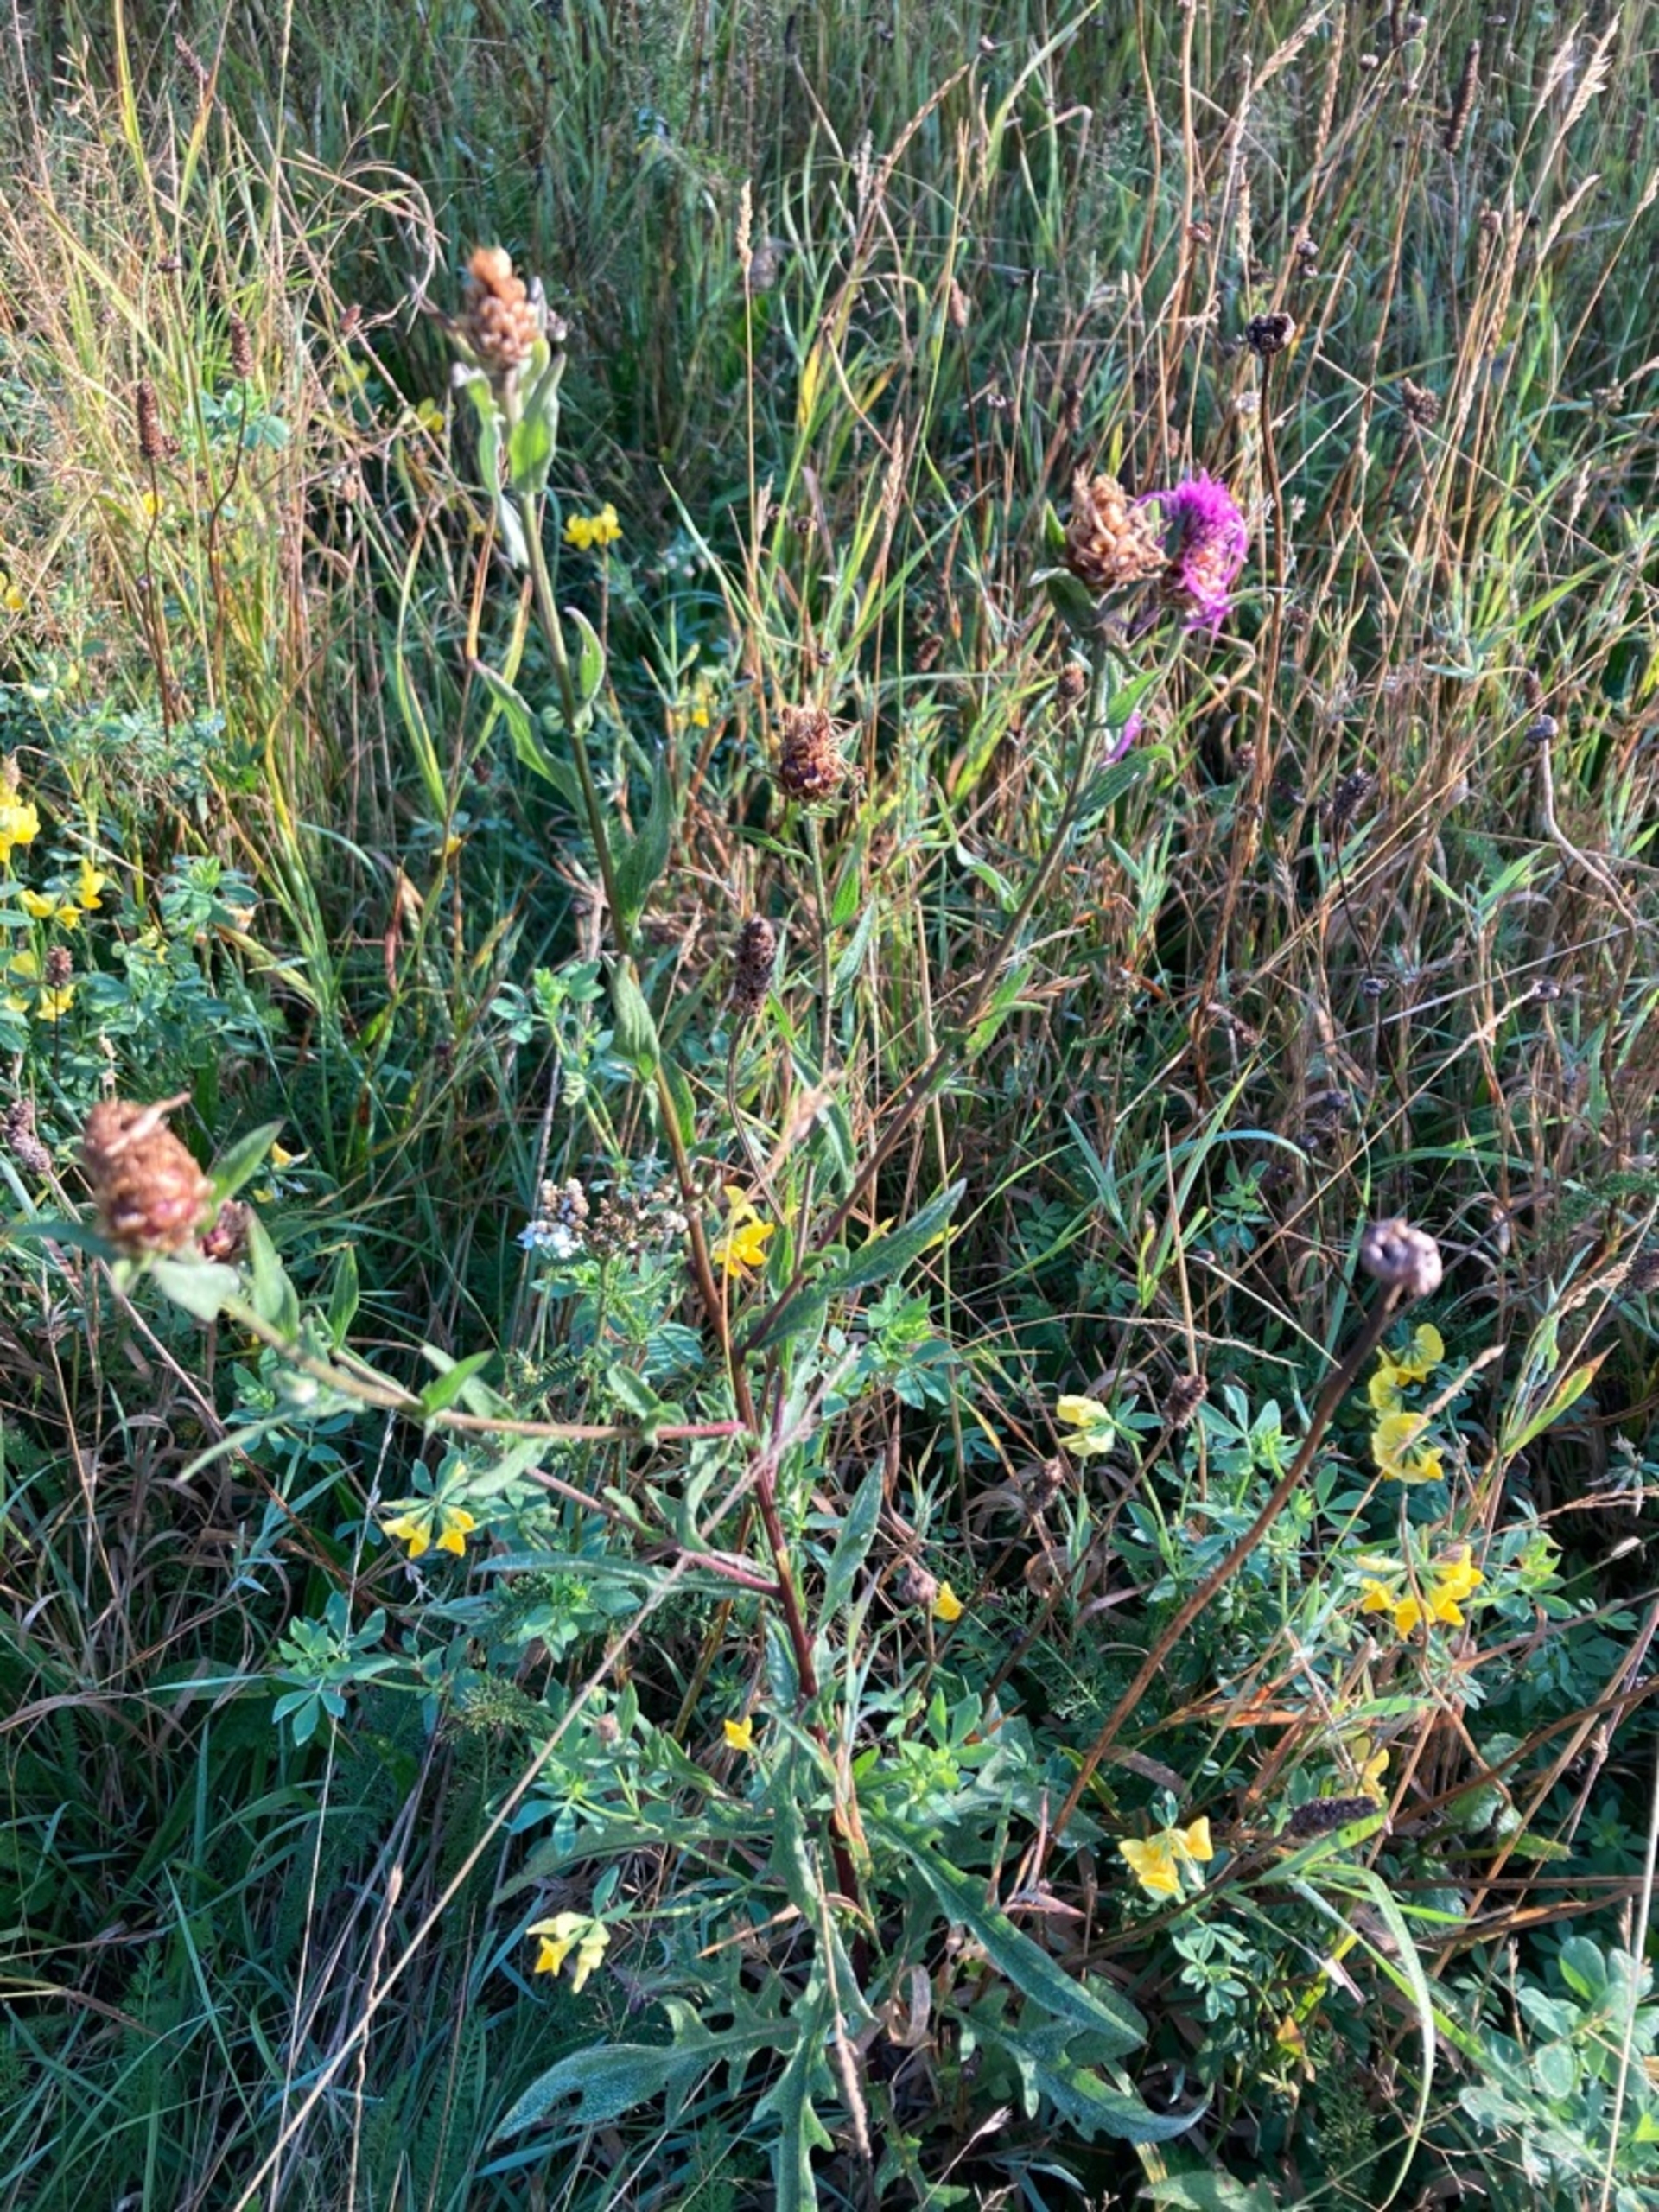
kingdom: Plantae
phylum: Tracheophyta
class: Magnoliopsida
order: Asterales
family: Asteraceae
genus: Centaurea
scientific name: Centaurea jacea
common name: Almindelig knopurt
